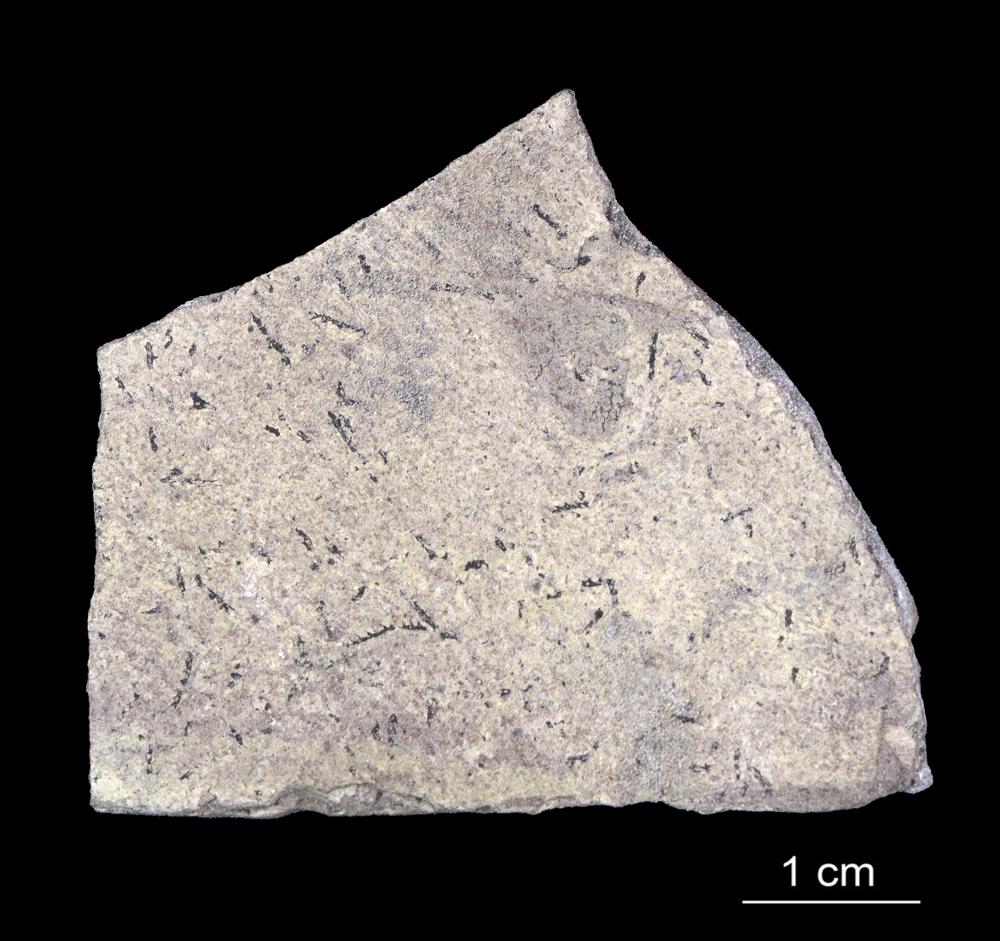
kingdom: Animalia
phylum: Hemichordata
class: Pterobranchia
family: Dichograptidae
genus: Didymograptus
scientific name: Didymograptus
